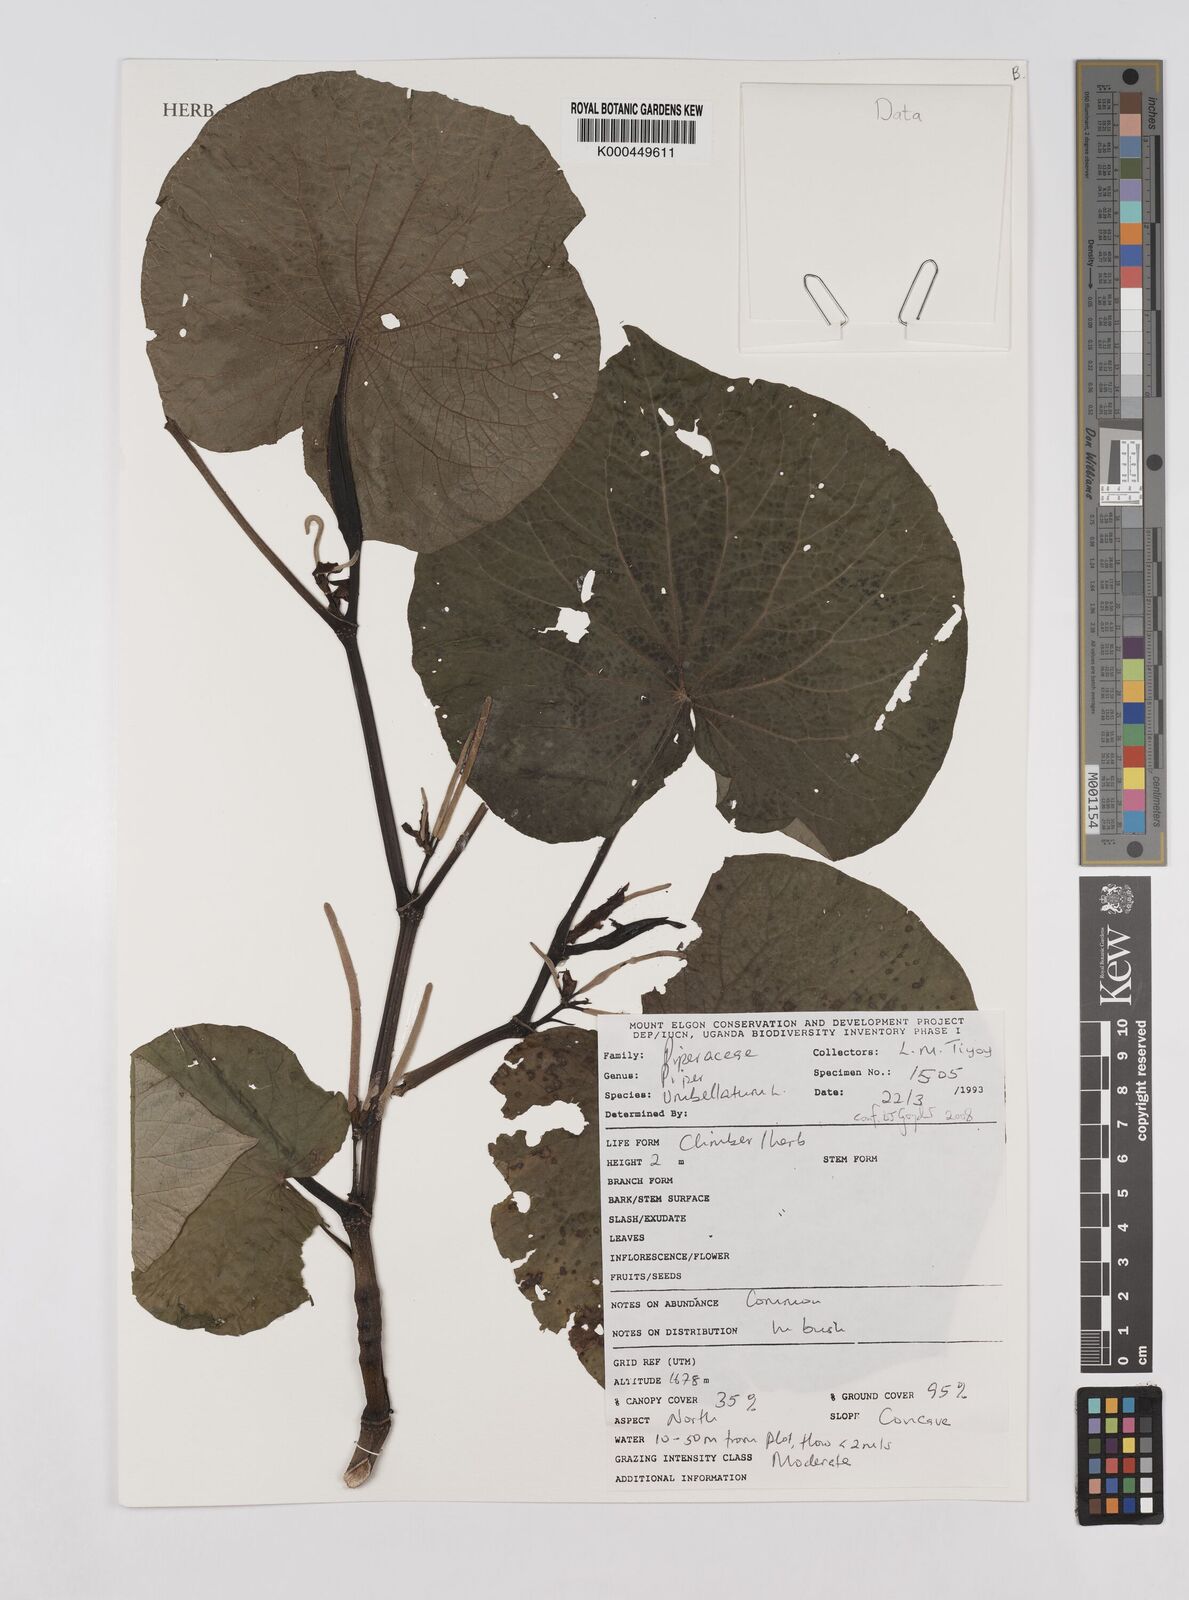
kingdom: Plantae
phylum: Tracheophyta
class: Magnoliopsida
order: Piperales
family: Piperaceae
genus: Piper
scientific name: Piper umbellatum
